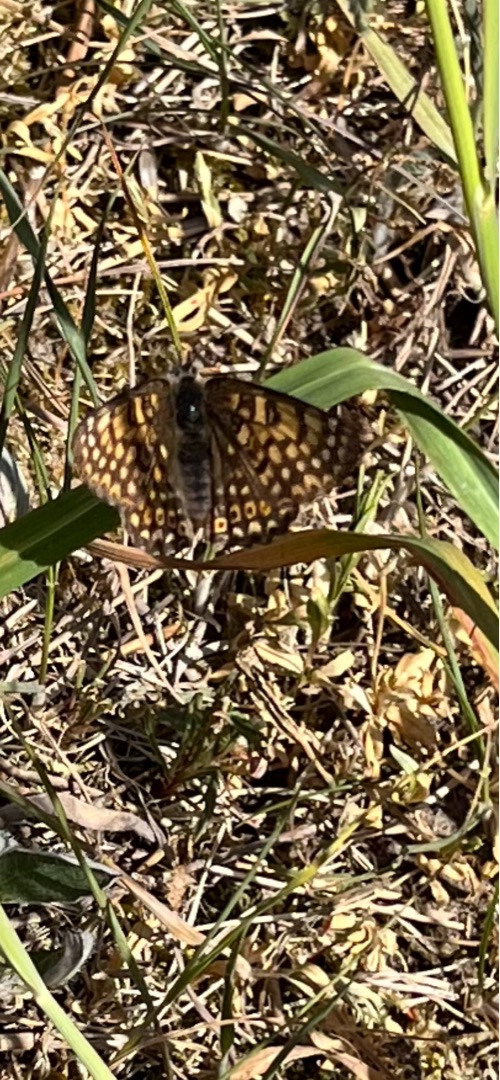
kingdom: Animalia
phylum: Arthropoda
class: Insecta
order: Lepidoptera
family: Nymphalidae
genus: Melitaea
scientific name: Melitaea cinxia
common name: Okkergul pletvinge
